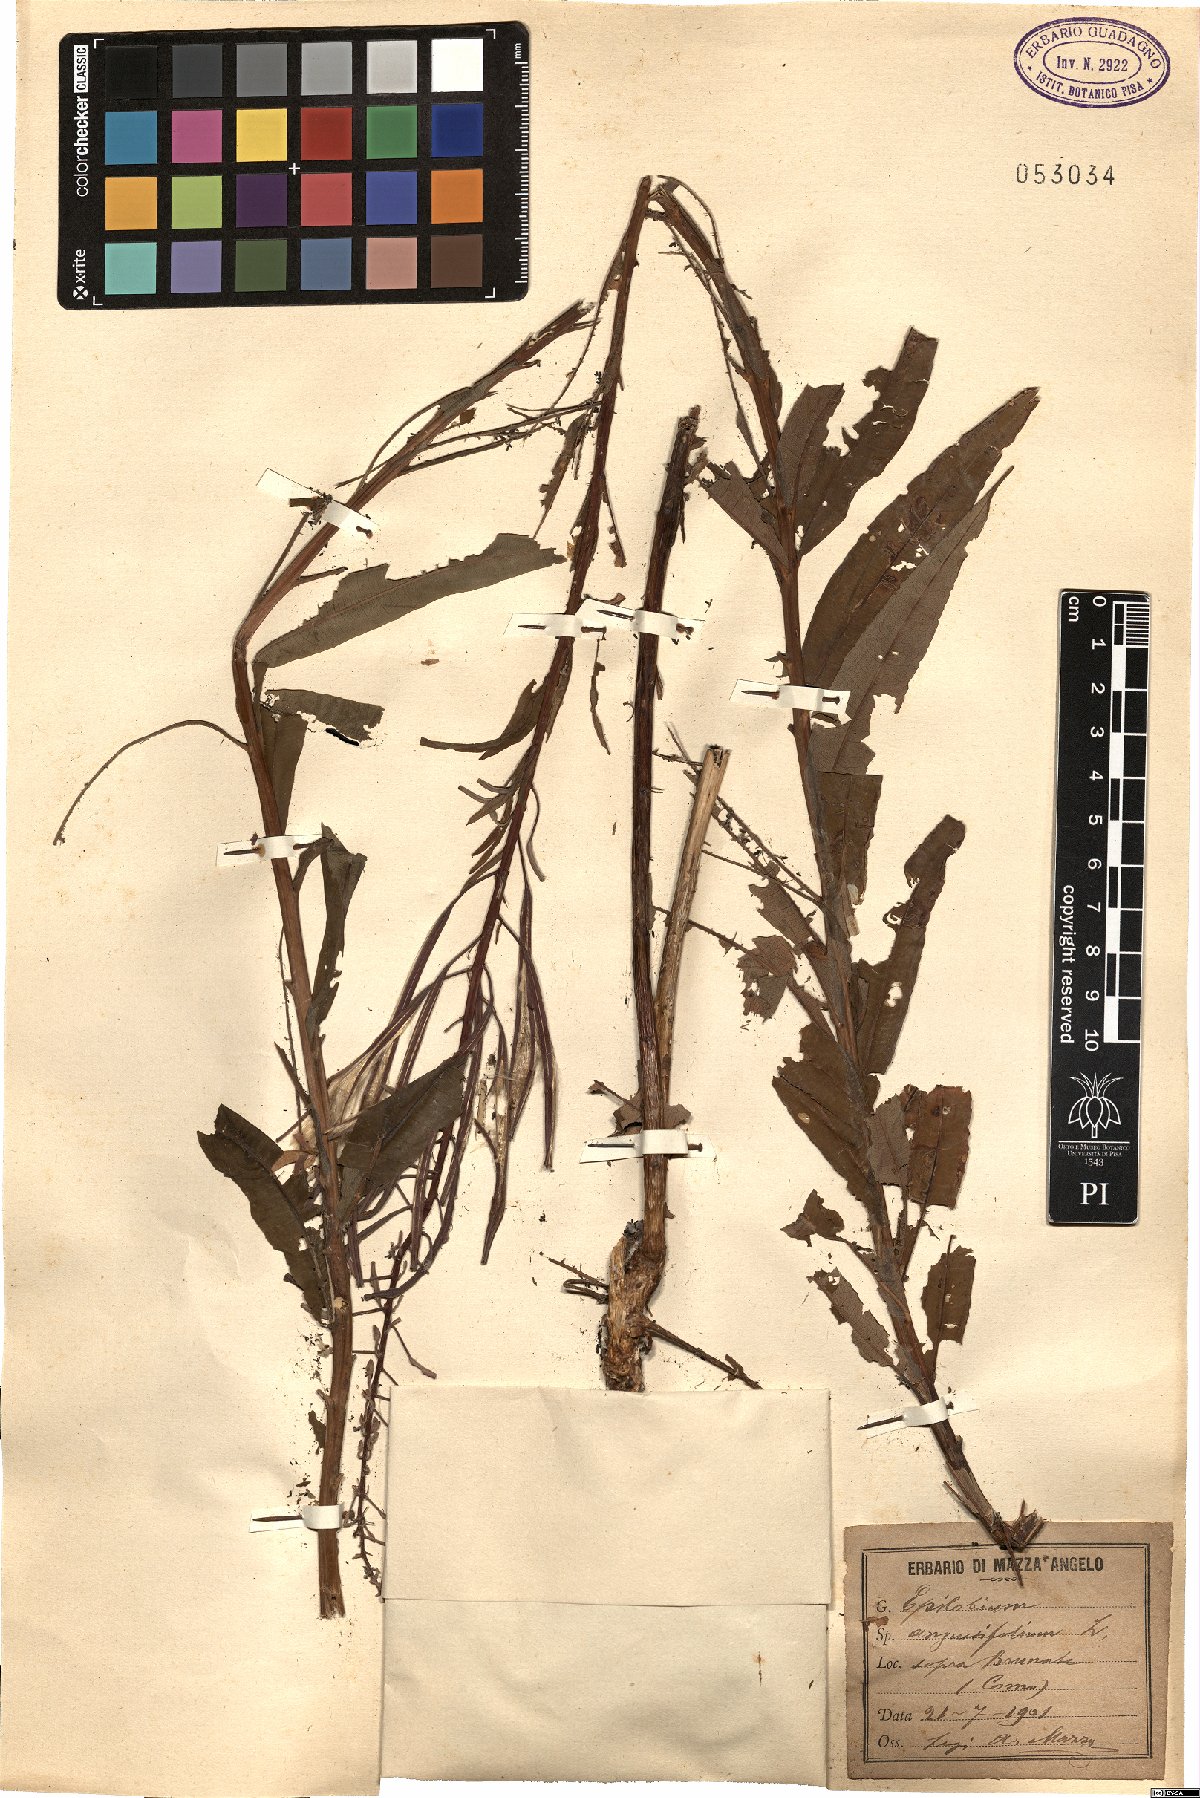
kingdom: Plantae
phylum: Tracheophyta
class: Magnoliopsida
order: Myrtales
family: Onagraceae
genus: Chamaenerion
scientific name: Chamaenerion angustifolium
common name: Fireweed
